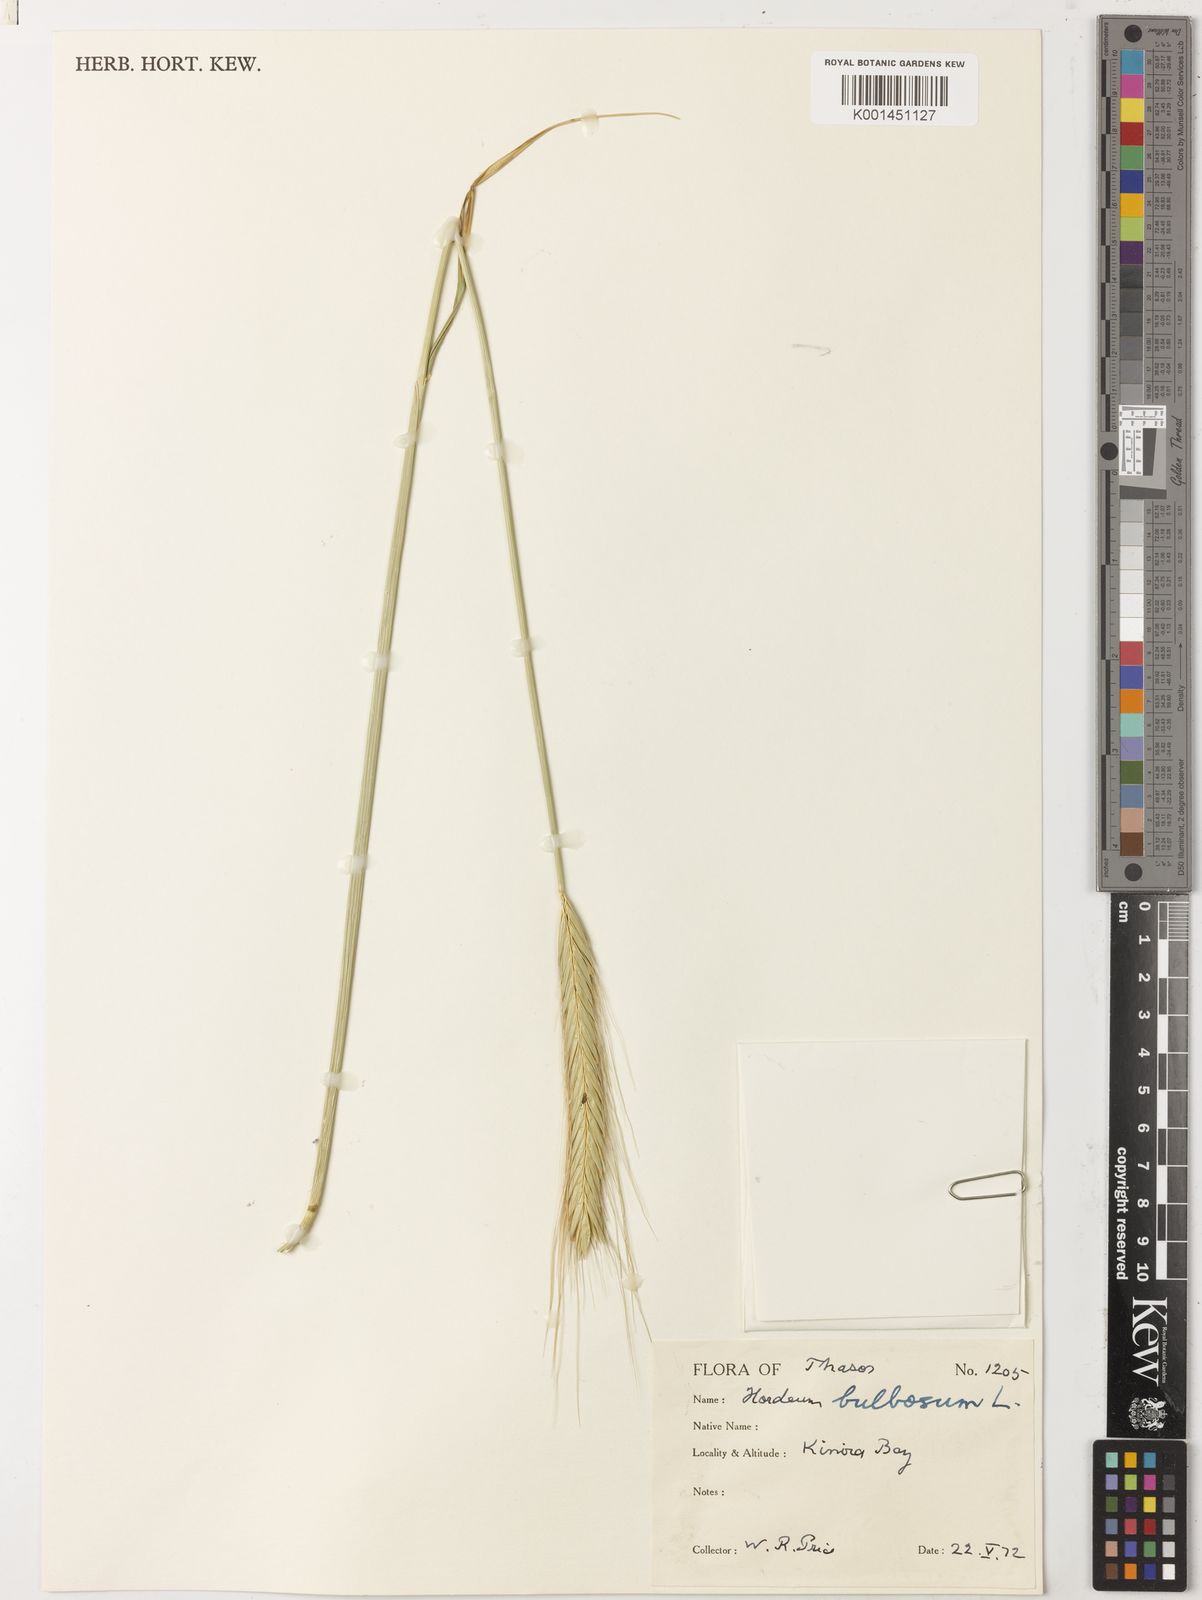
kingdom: Plantae
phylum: Tracheophyta
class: Liliopsida
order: Poales
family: Poaceae
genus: Hordeum
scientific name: Hordeum bulbosum
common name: Bulbous barley
